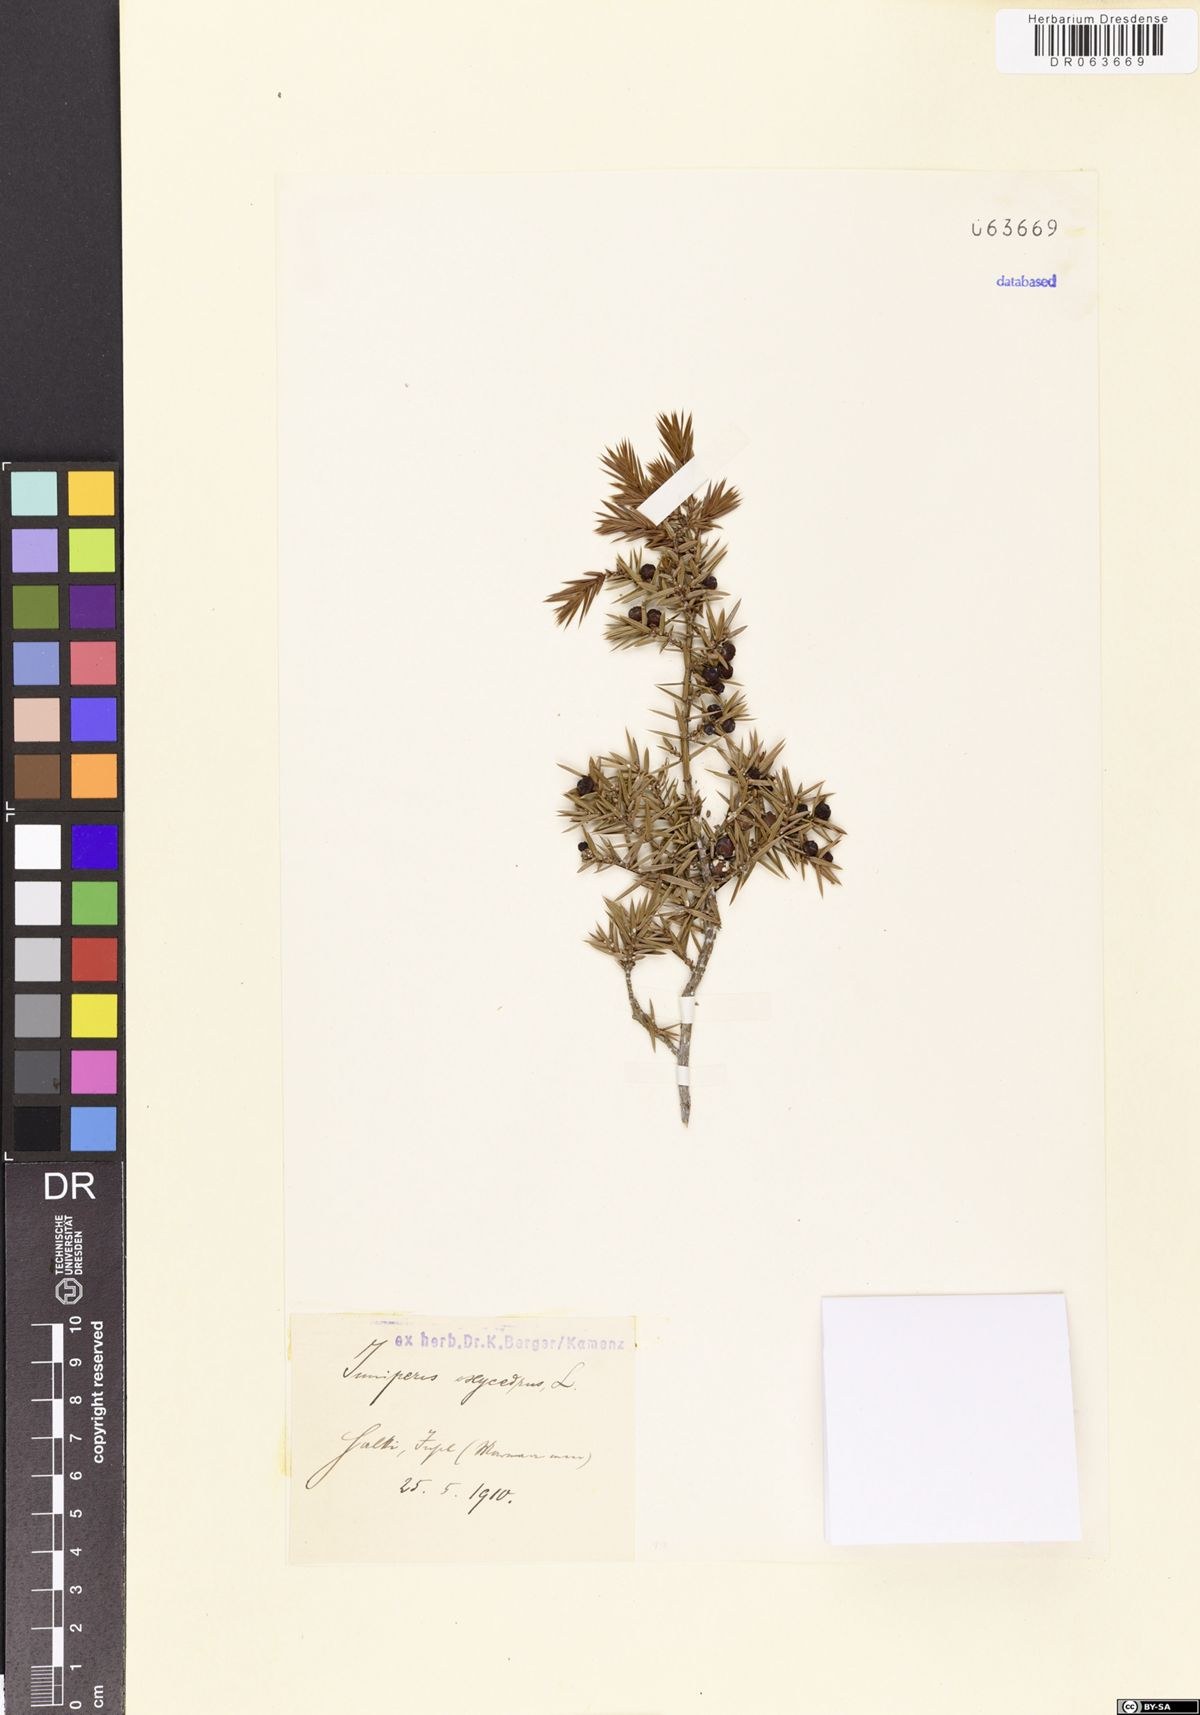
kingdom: Plantae
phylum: Tracheophyta
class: Pinopsida
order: Pinales
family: Cupressaceae
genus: Juniperus
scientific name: Juniperus oxycedrus
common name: Prickly juniper
